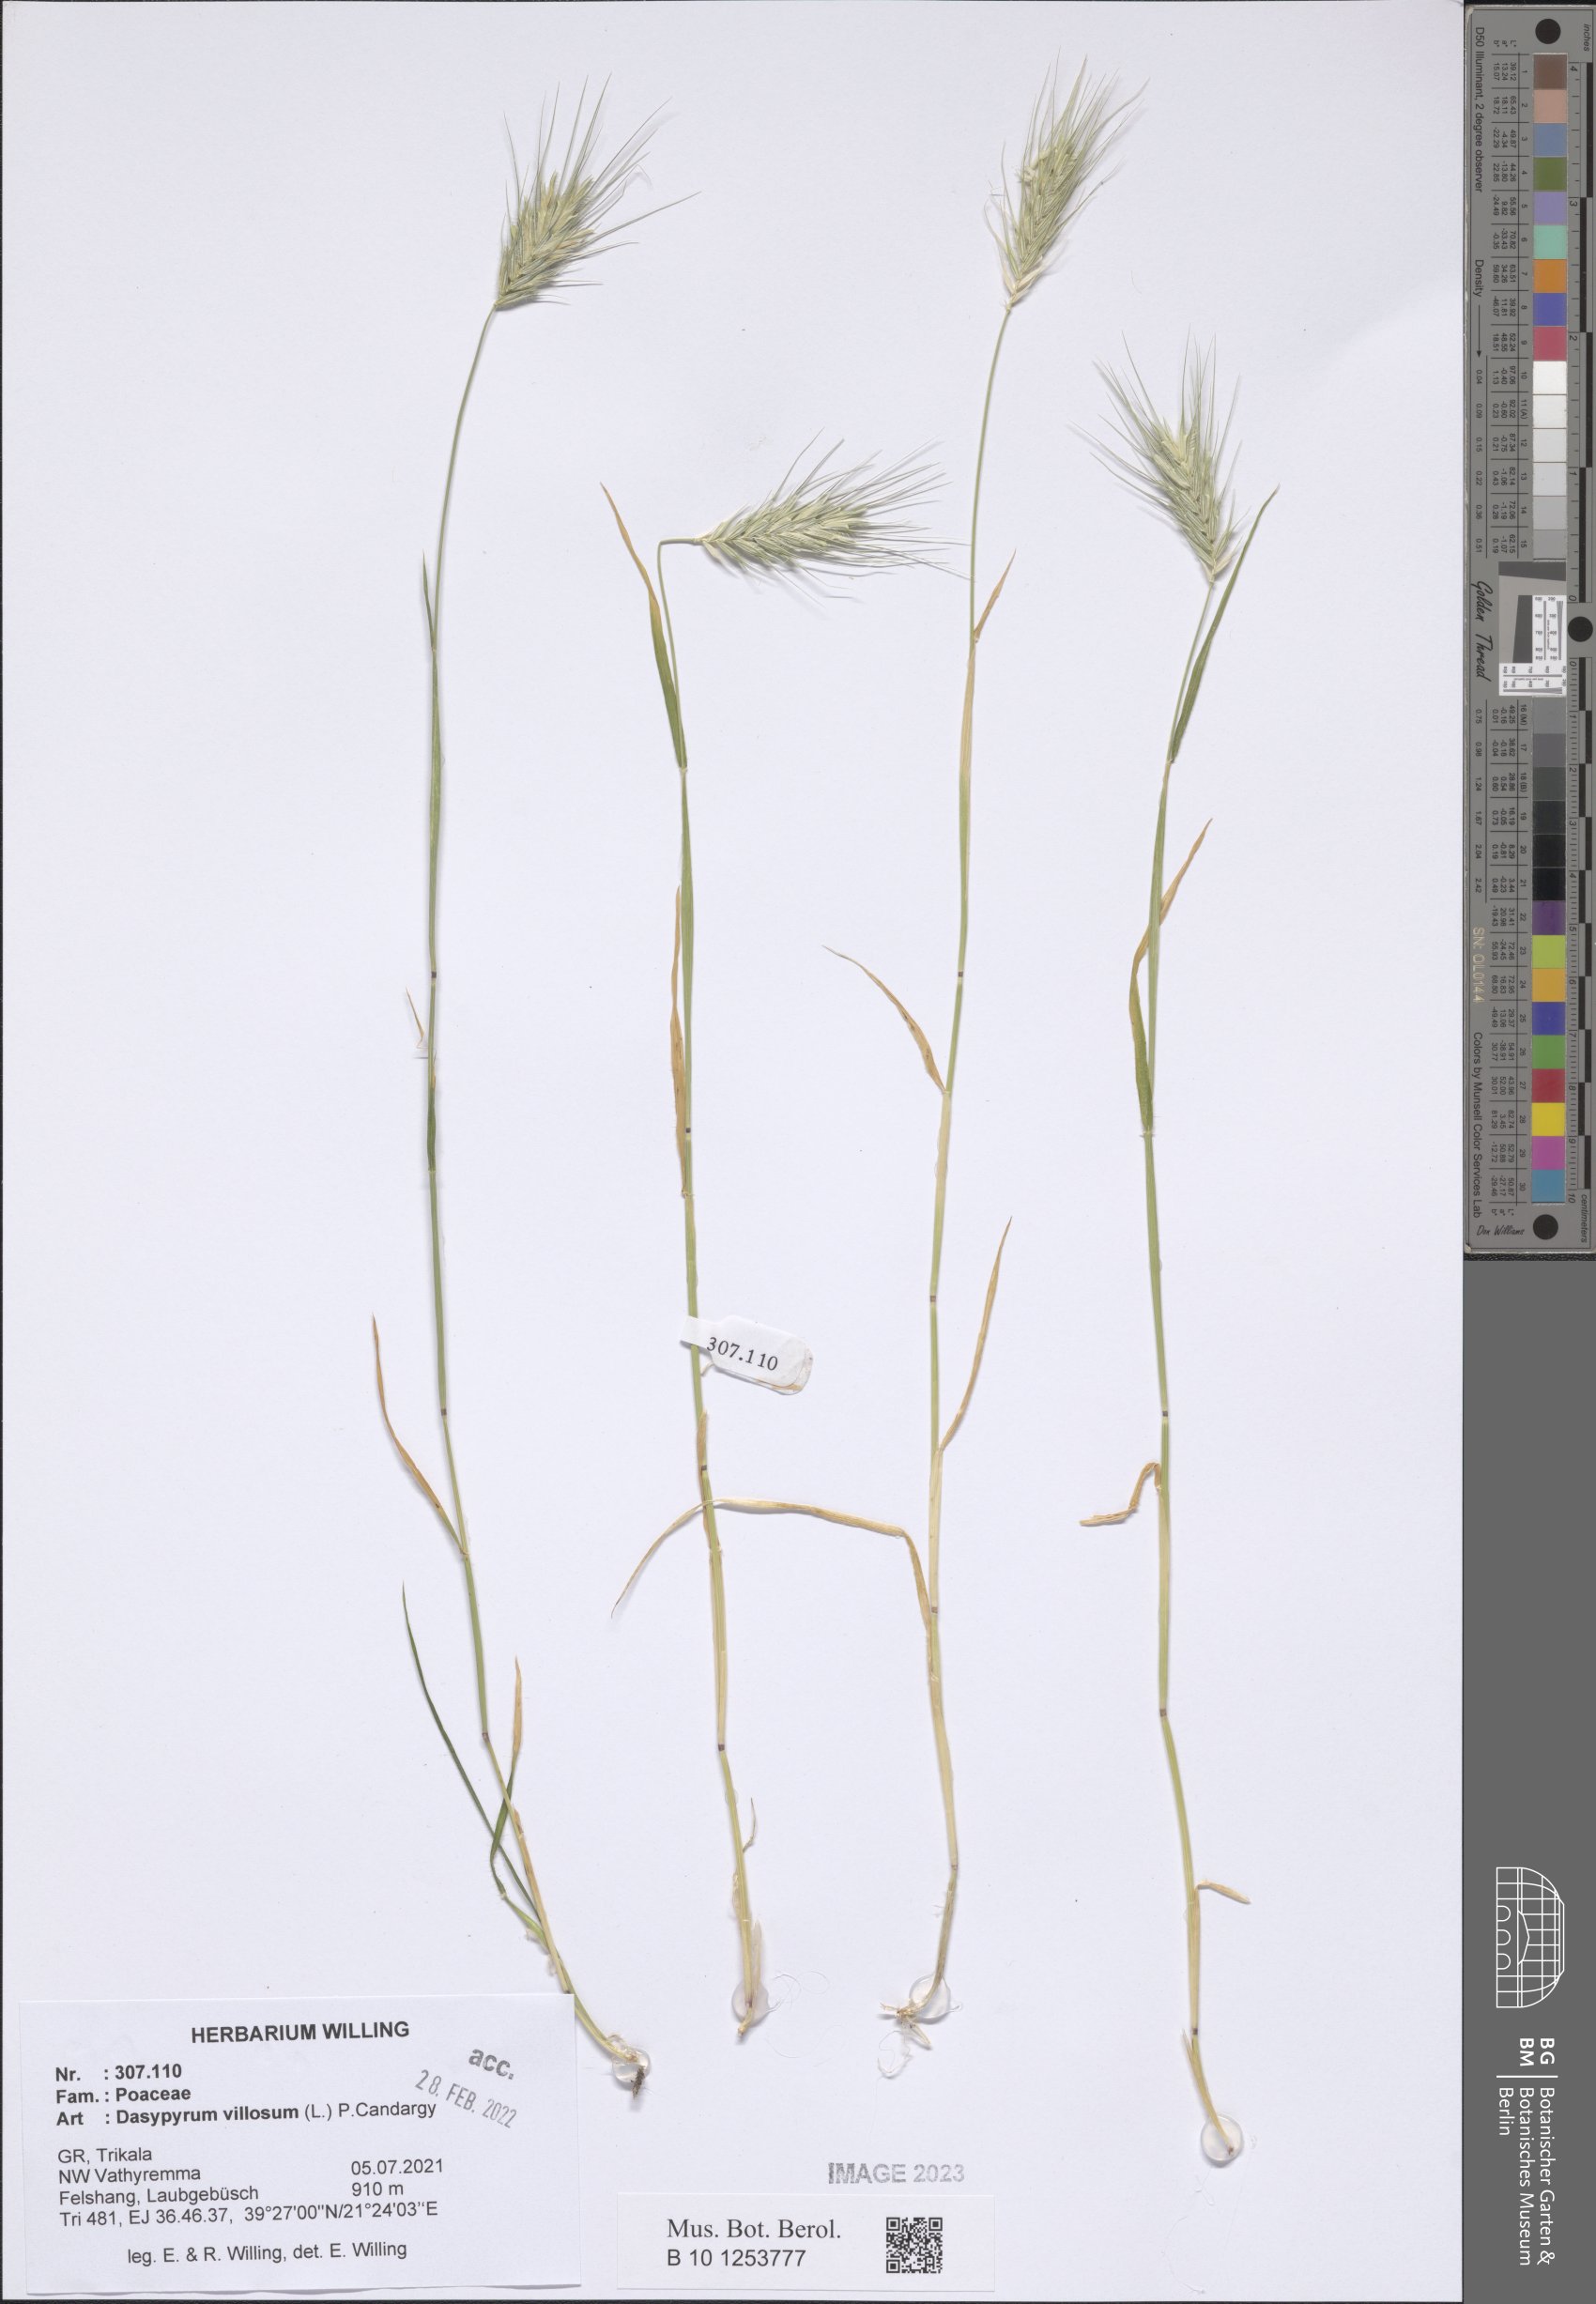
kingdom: Plantae
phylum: Tracheophyta
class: Liliopsida
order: Poales
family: Poaceae
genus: Dasypyrum
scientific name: Dasypyrum villosum
